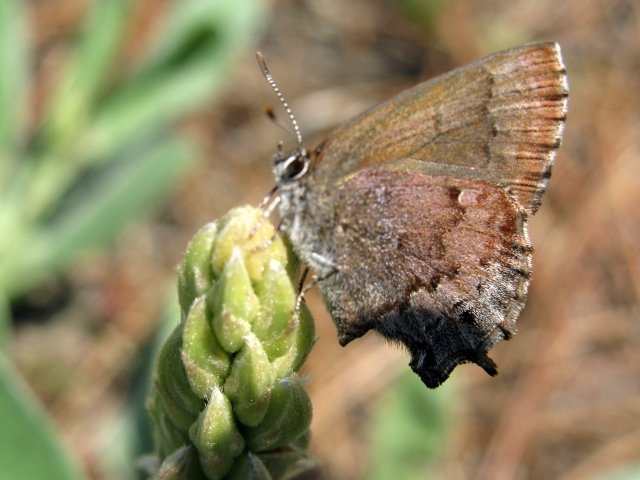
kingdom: Animalia
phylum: Arthropoda
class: Insecta
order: Lepidoptera
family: Lycaenidae
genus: Thecla
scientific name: Thecla irus
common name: Frosted Elfin
